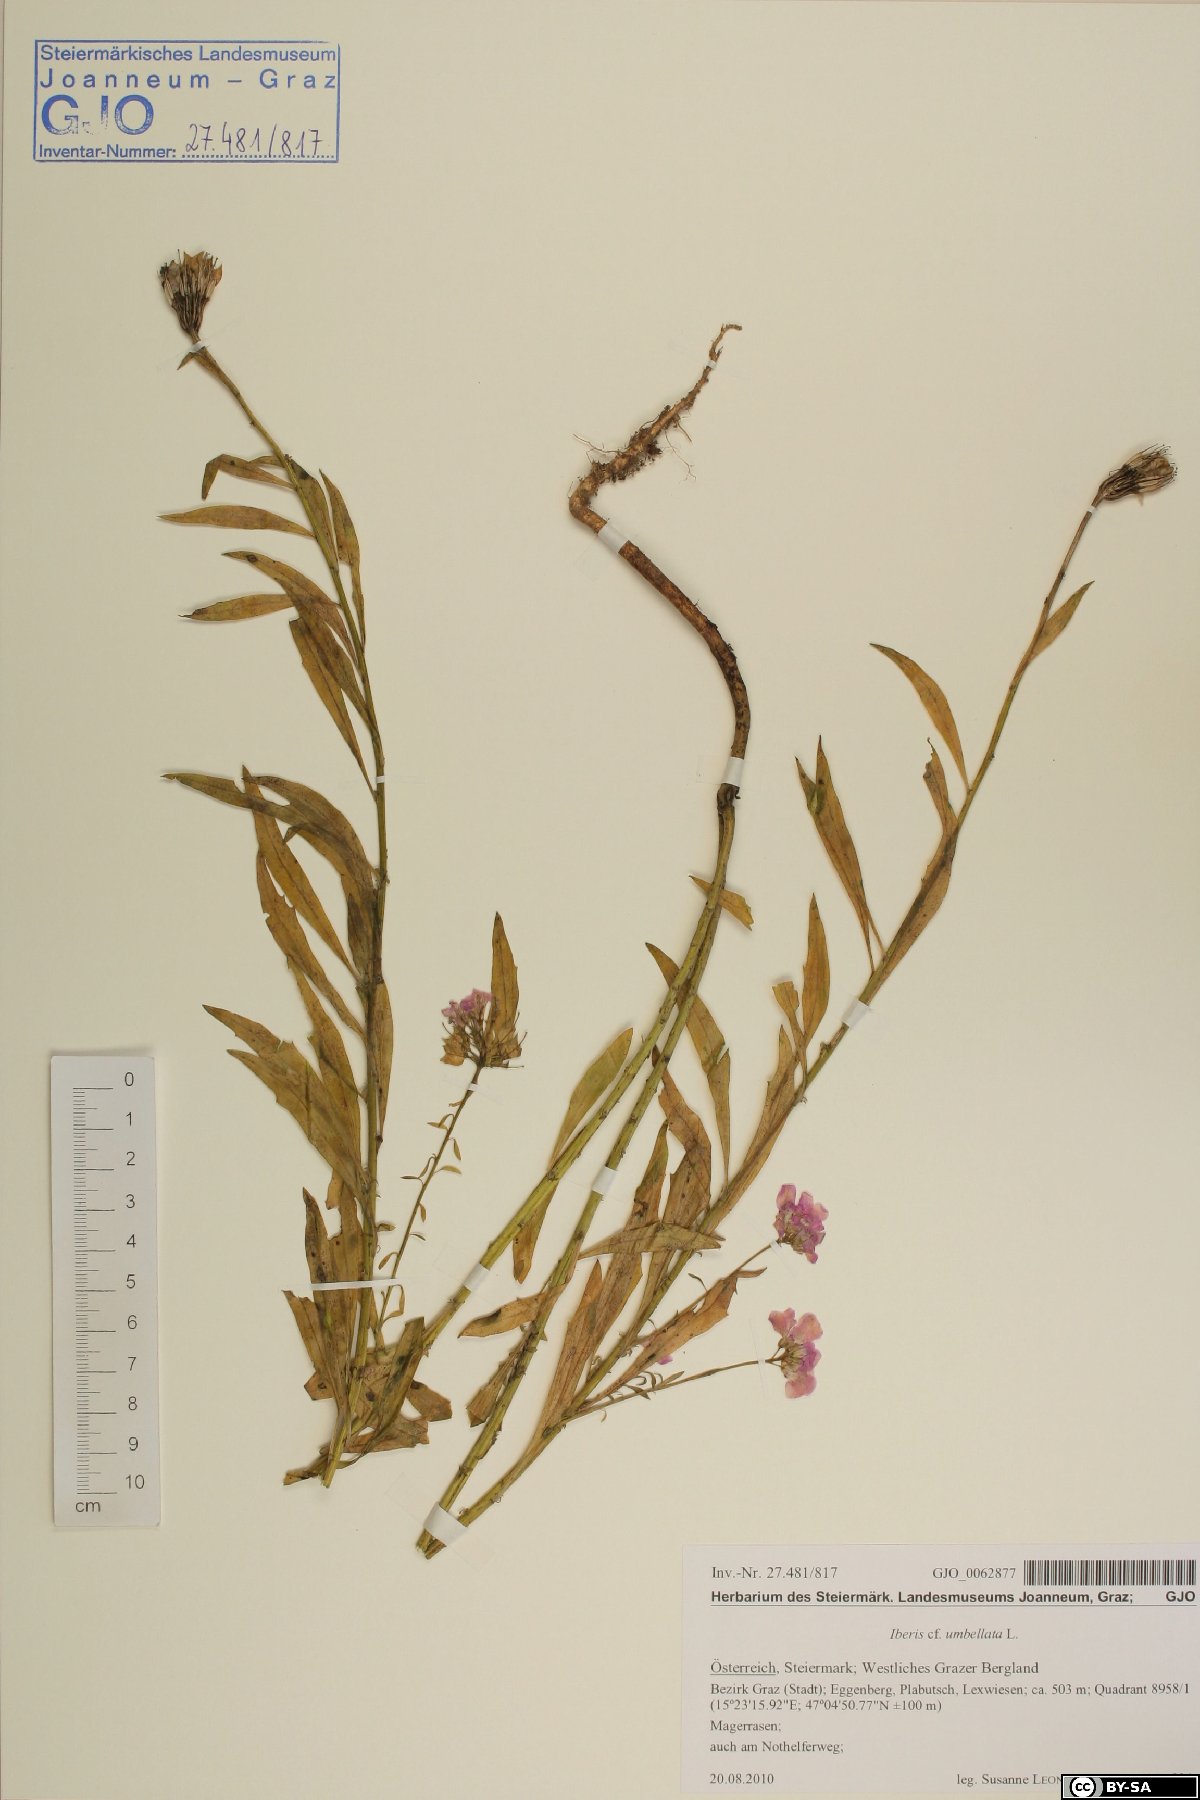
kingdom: Plantae
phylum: Tracheophyta
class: Magnoliopsida
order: Brassicales
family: Brassicaceae
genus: Iberis
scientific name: Iberis umbellata
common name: Globe candytuft
